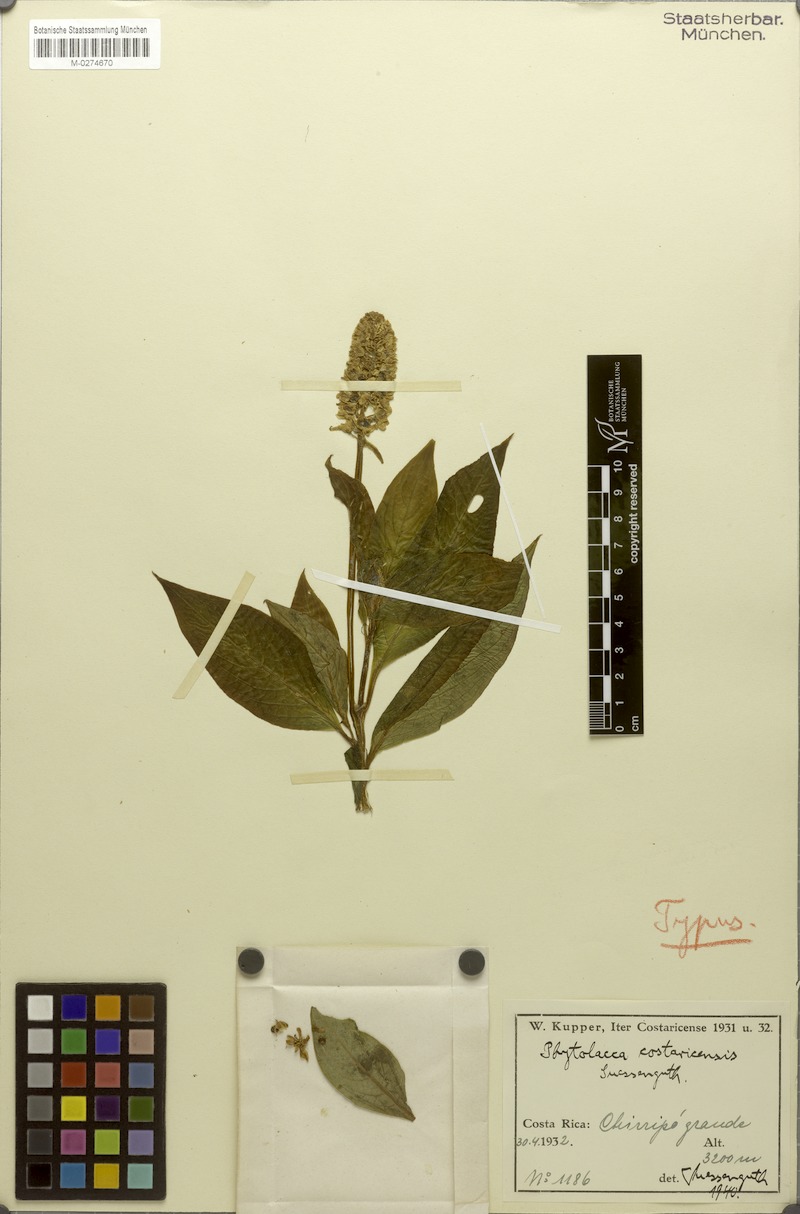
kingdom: Plantae
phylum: Tracheophyta
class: Magnoliopsida
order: Caryophyllales
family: Phytolaccaceae
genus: Phytolacca
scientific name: Phytolacca rugosa
